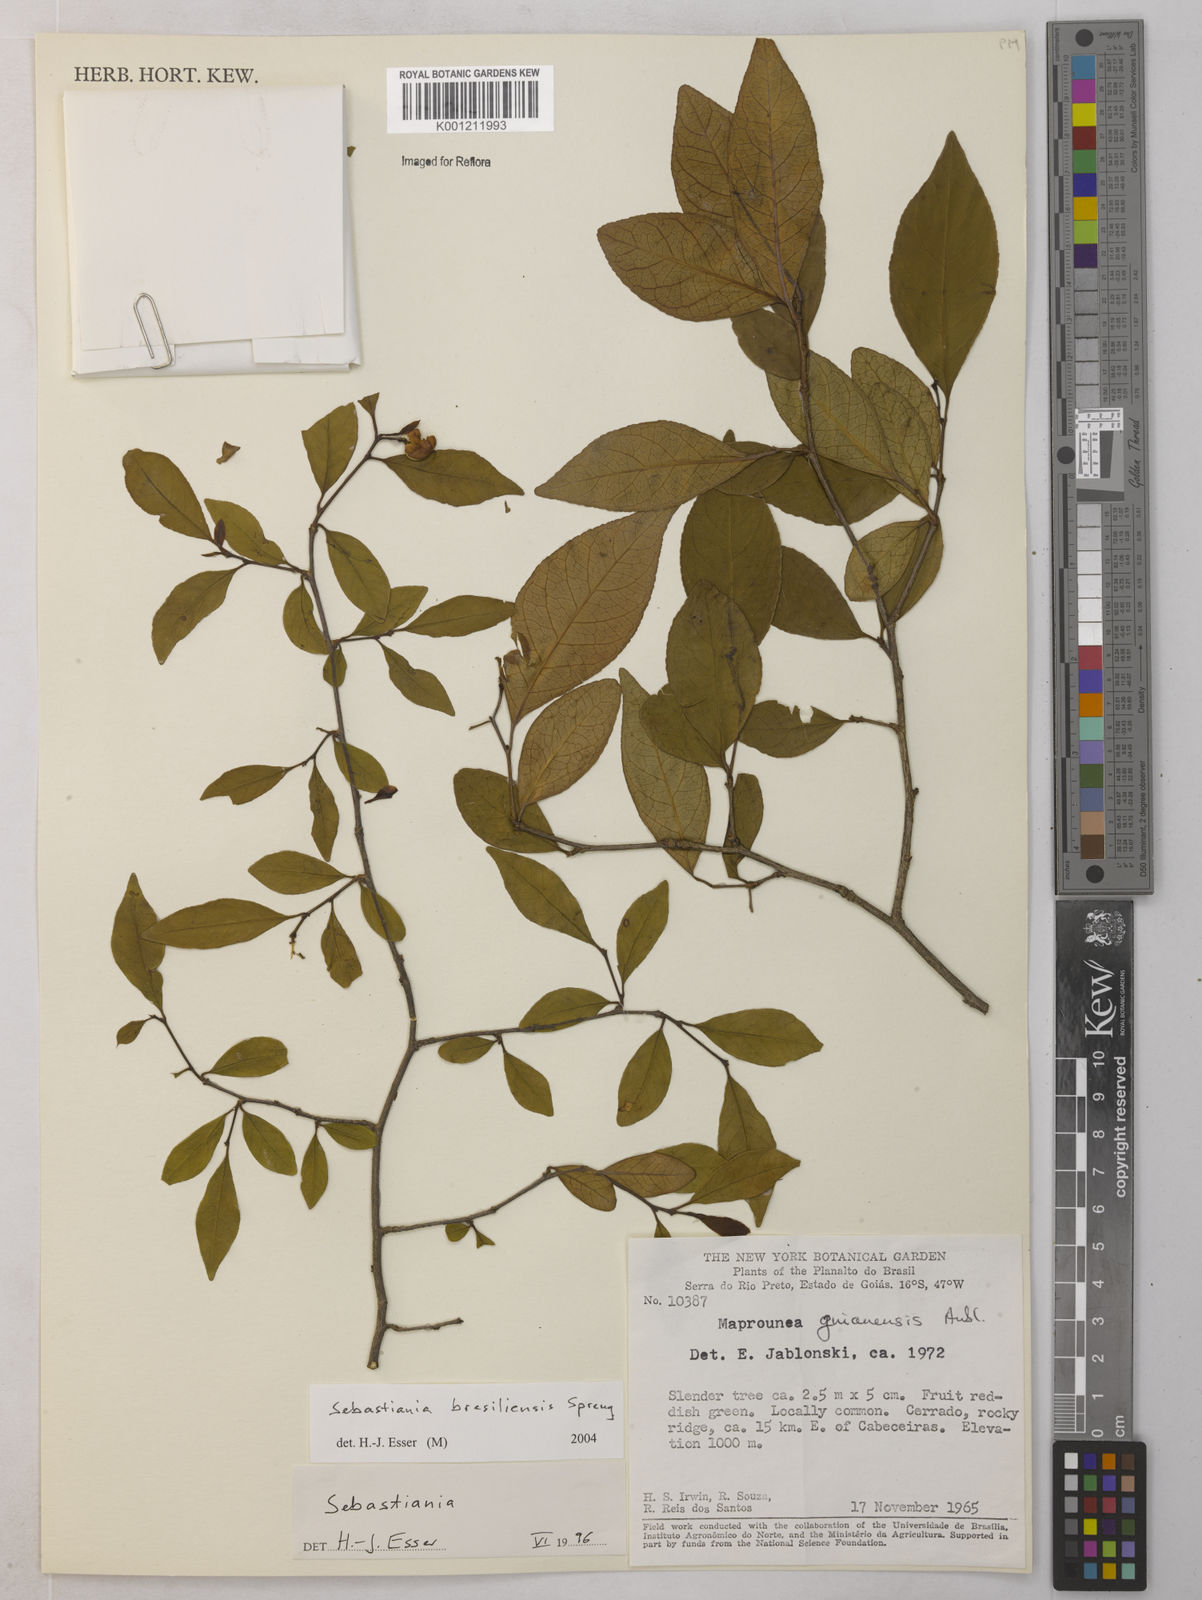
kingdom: Plantae
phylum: Tracheophyta
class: Magnoliopsida
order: Malpighiales
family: Euphorbiaceae
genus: Sebastiania
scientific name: Sebastiania brasiliensis
